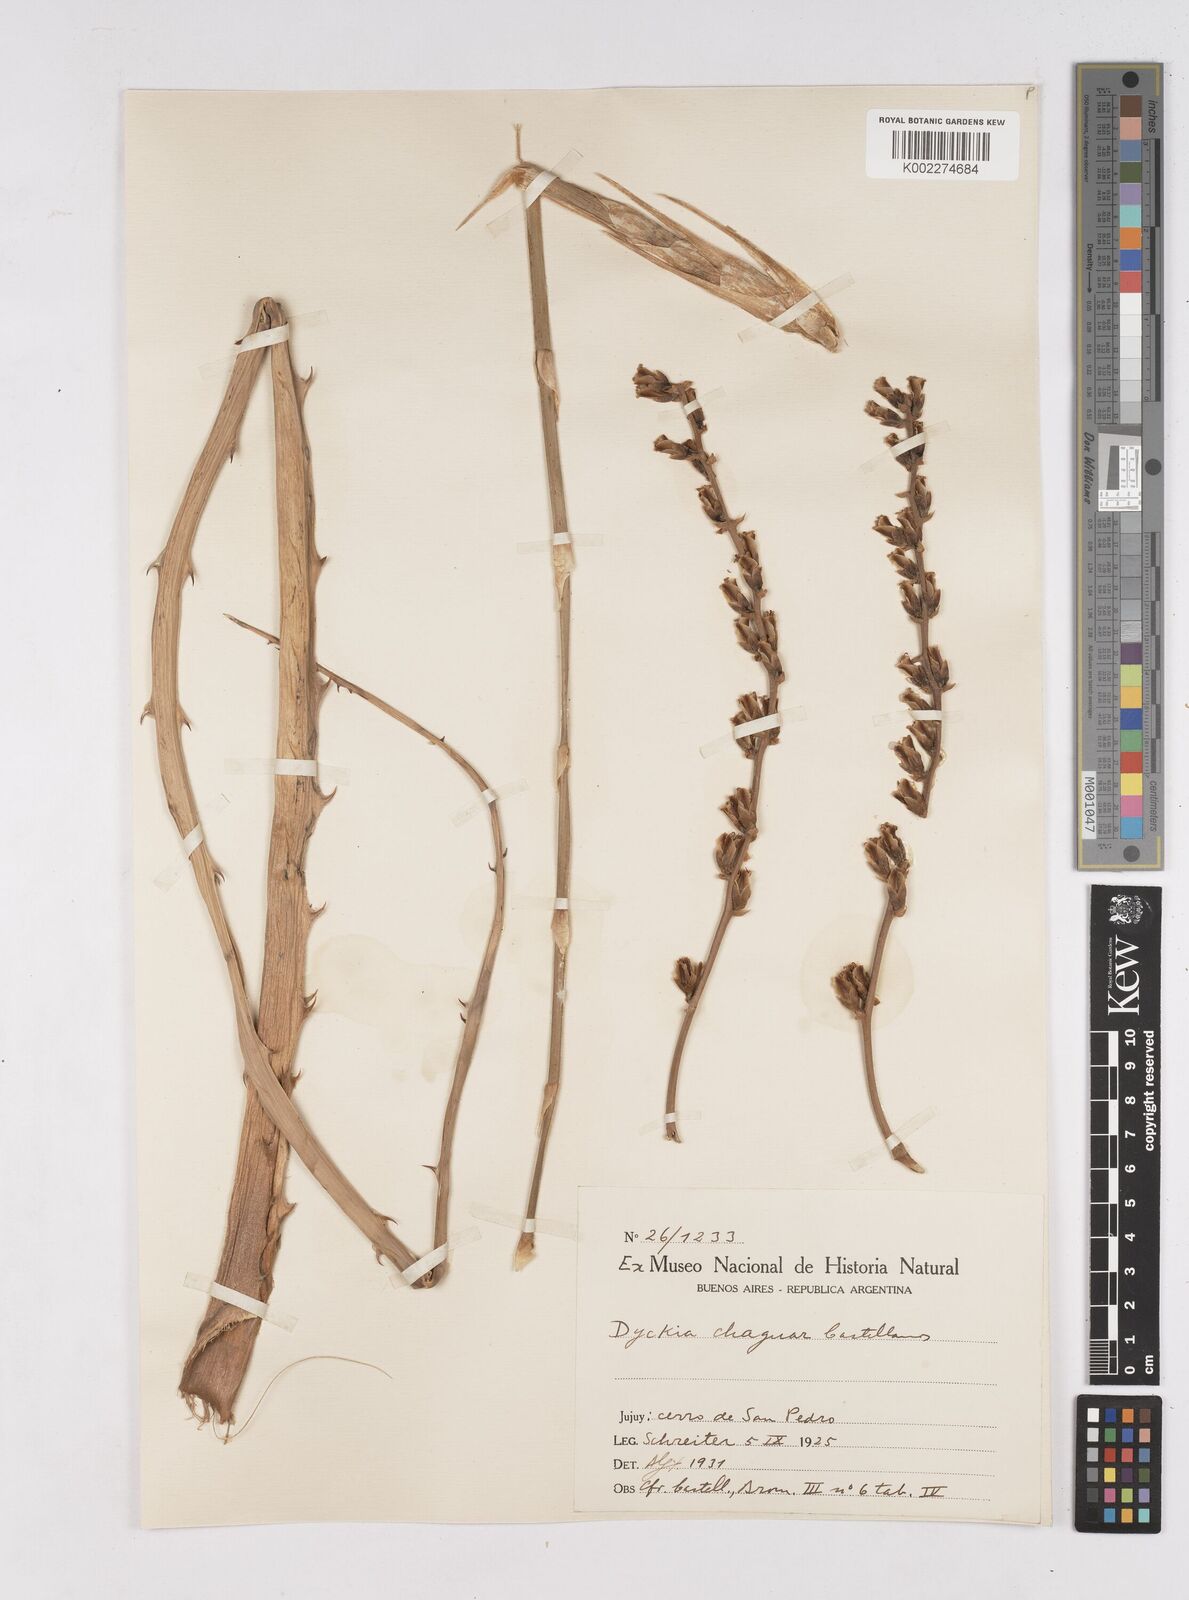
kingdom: Plantae
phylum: Tracheophyta
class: Liliopsida
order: Poales
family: Bromeliaceae
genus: Dyckia
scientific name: Dyckia floribunda
